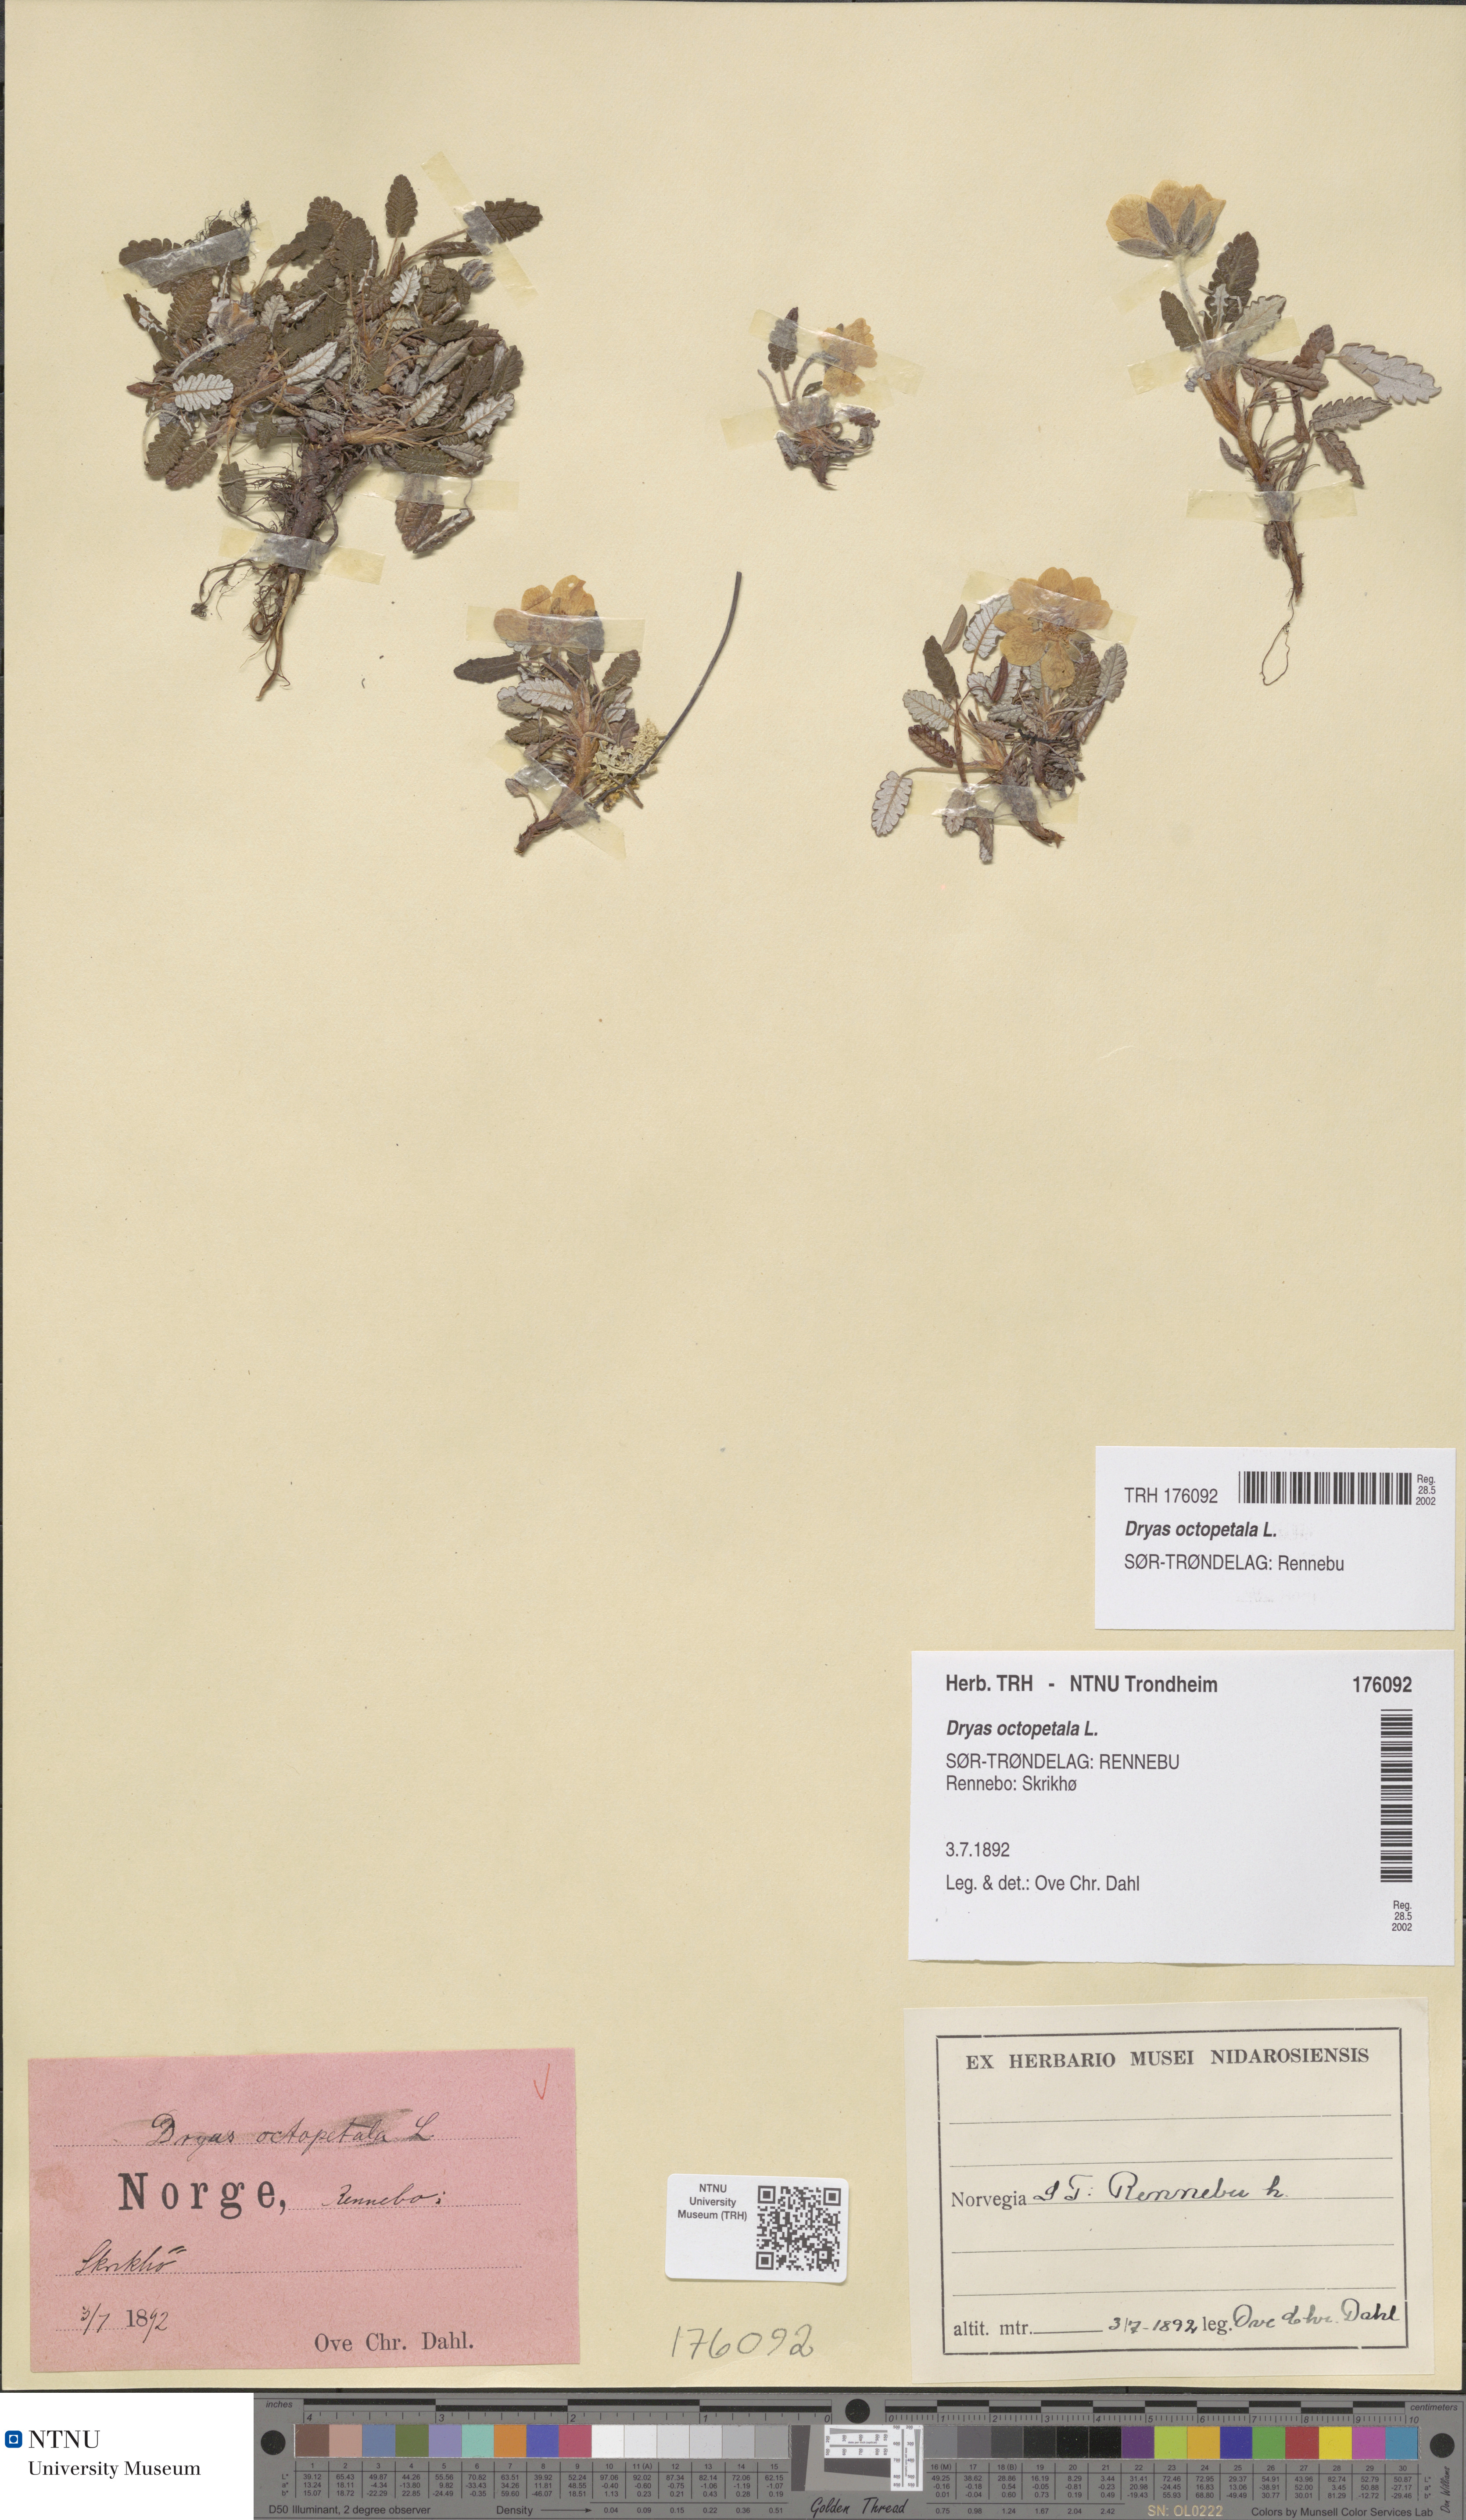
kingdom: Plantae
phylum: Tracheophyta
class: Magnoliopsida
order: Rosales
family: Rosaceae
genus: Dryas
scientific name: Dryas octopetala
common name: Eight-petal mountain-avens
